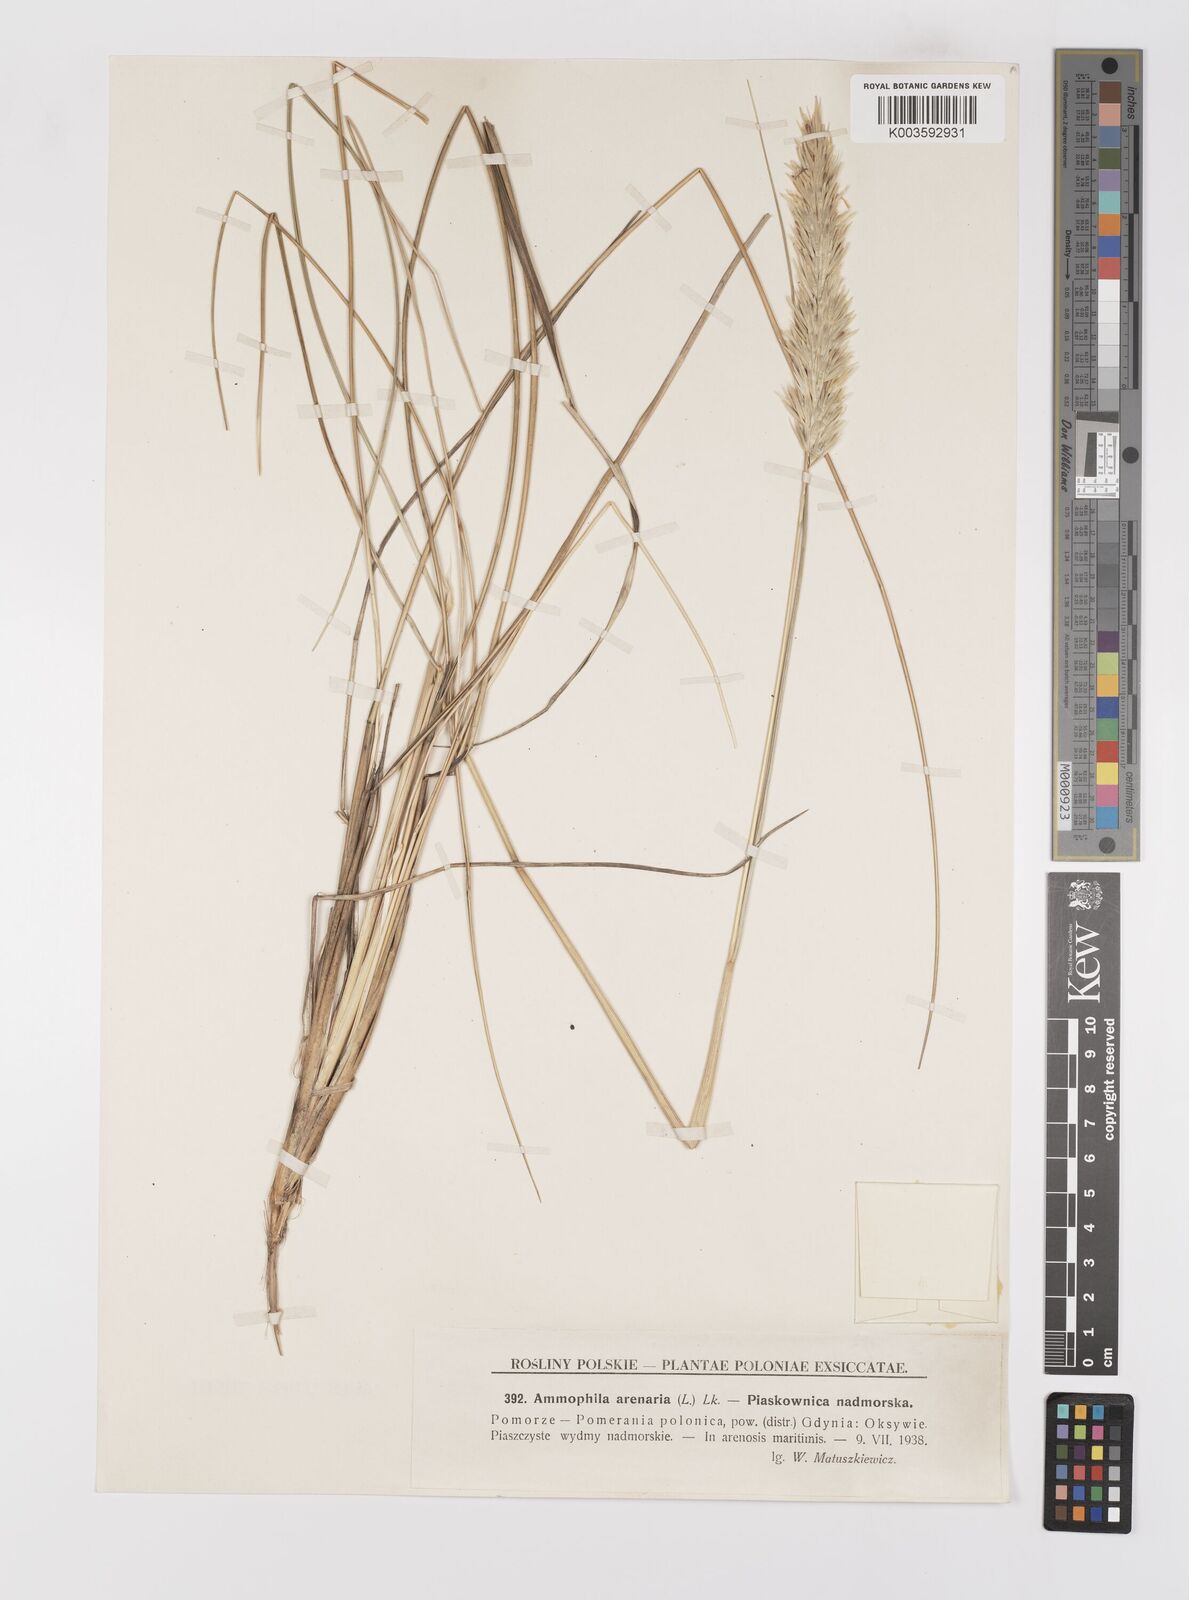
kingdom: Plantae
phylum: Tracheophyta
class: Liliopsida
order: Poales
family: Poaceae
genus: Calamagrostis
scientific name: Calamagrostis arenaria
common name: European beachgrass
